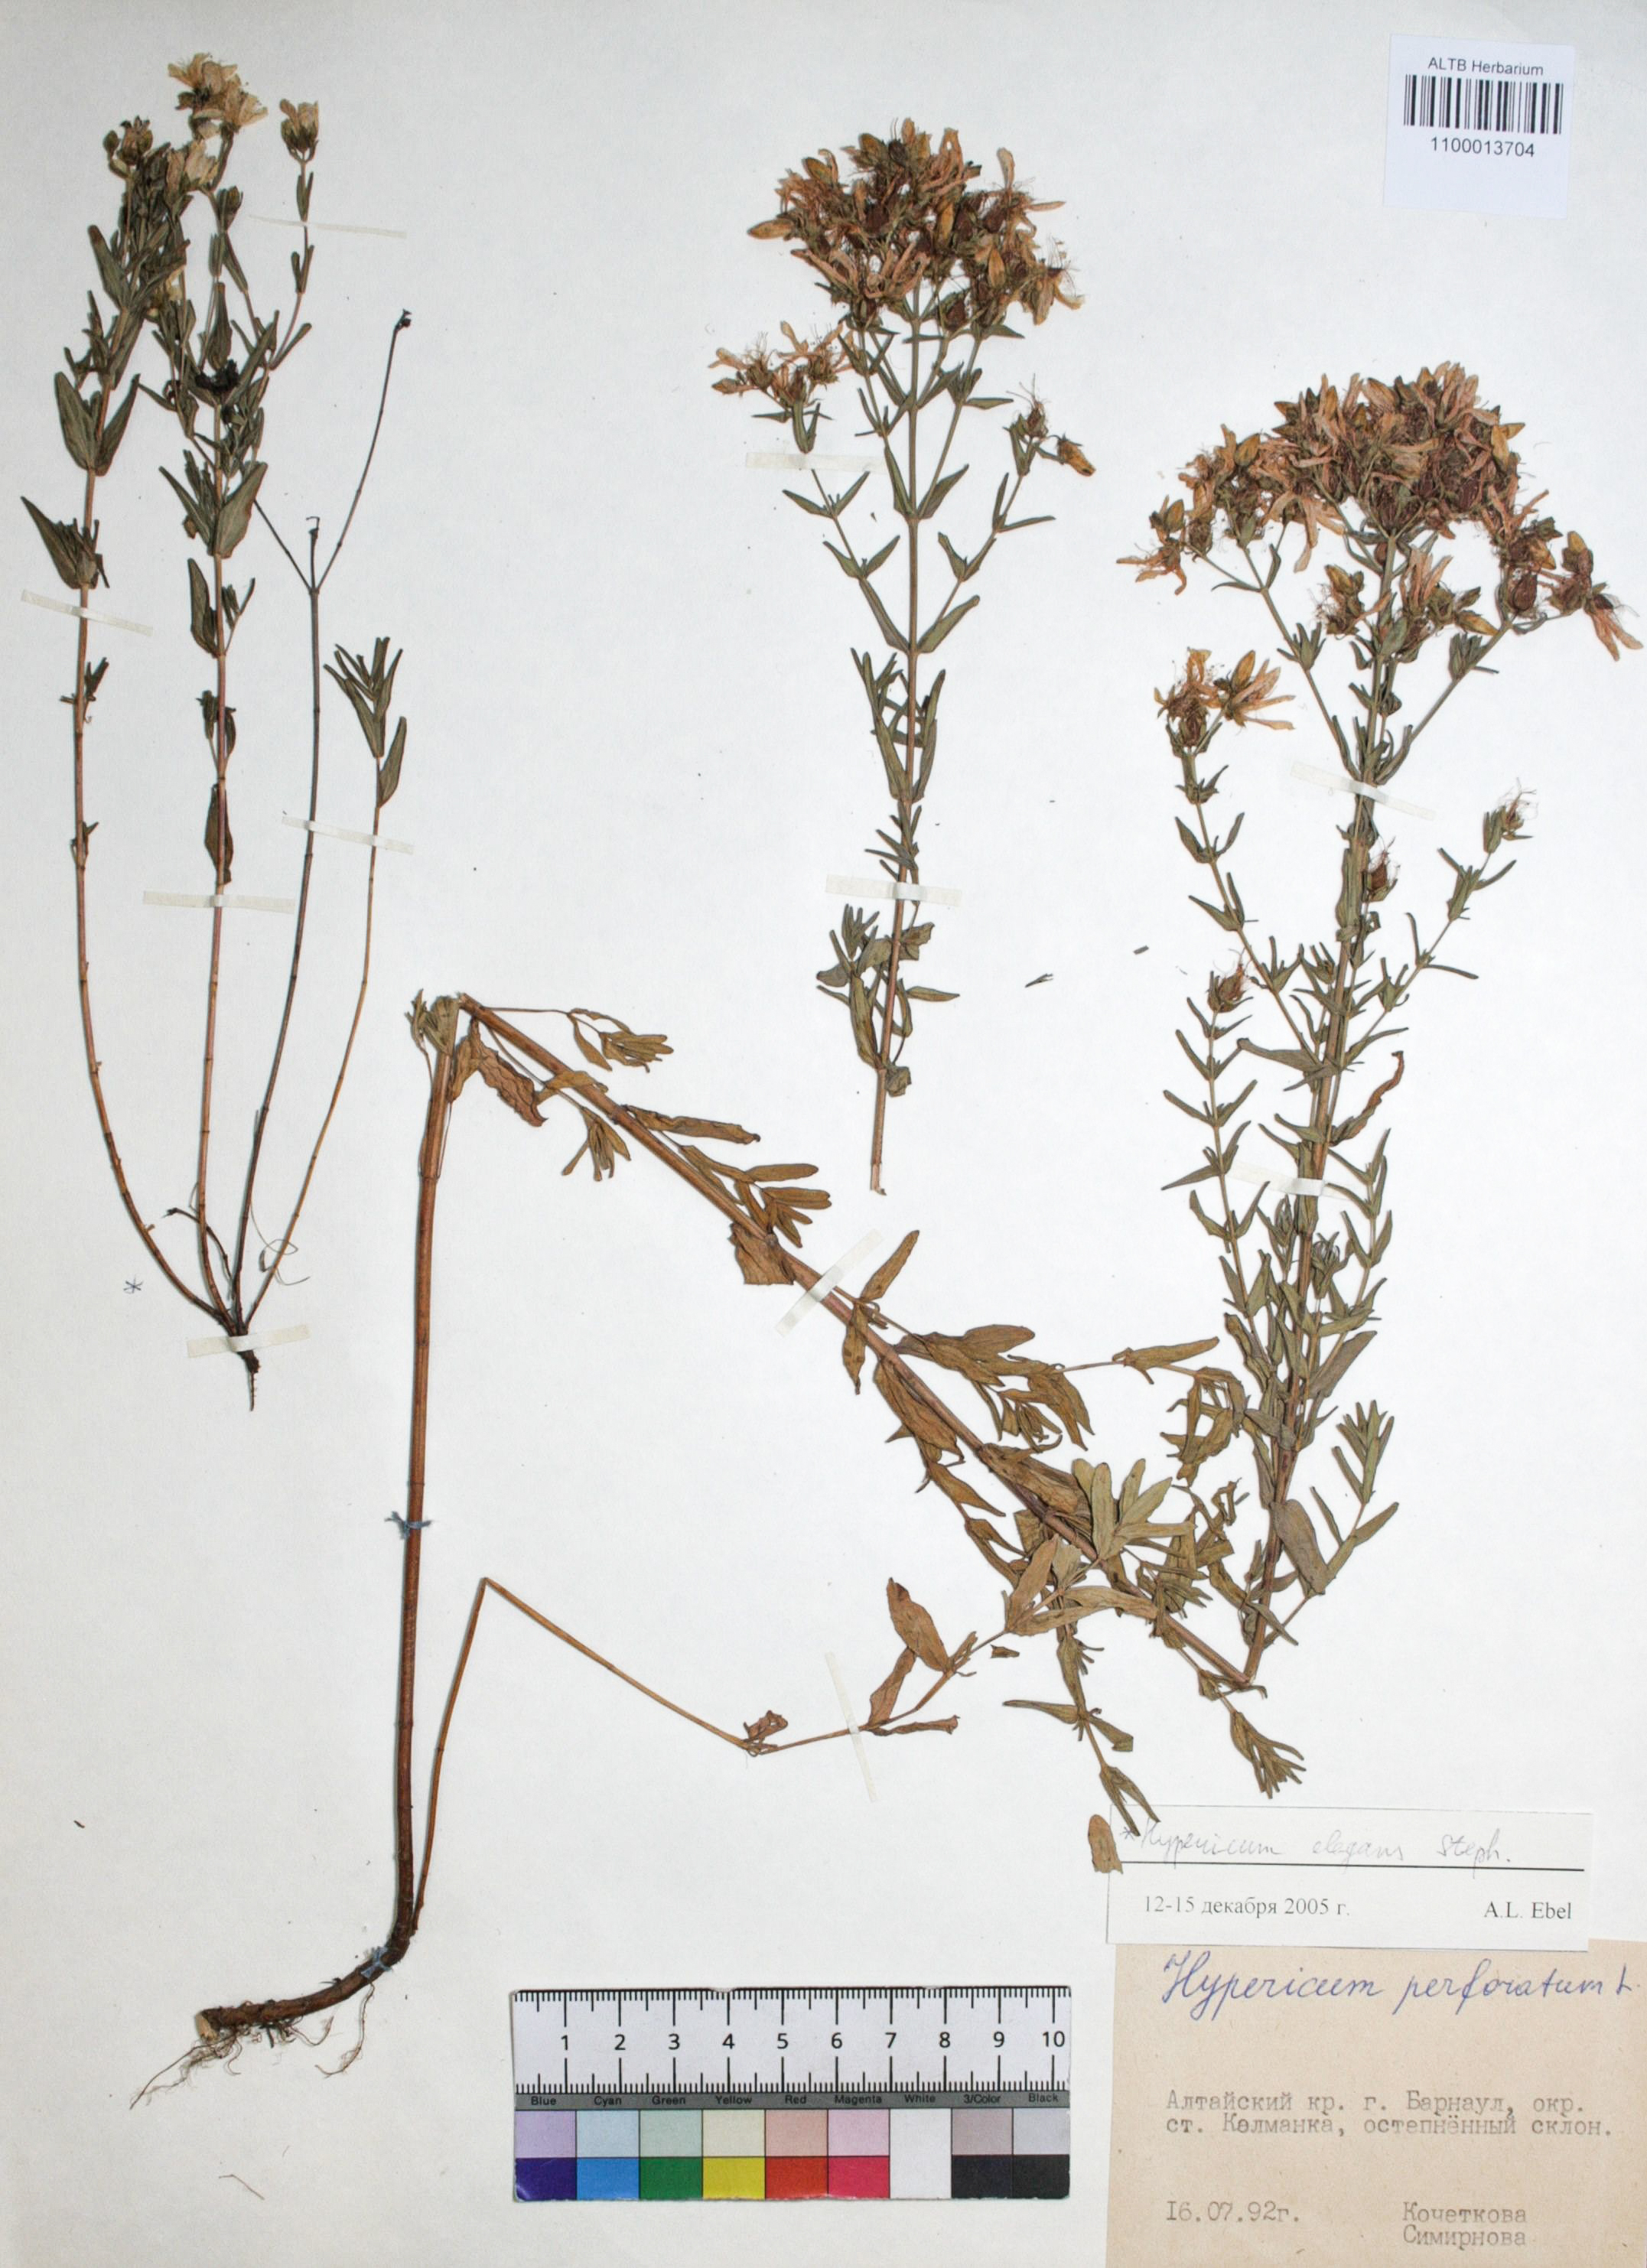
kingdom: Plantae
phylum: Tracheophyta
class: Magnoliopsida
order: Malpighiales
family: Hypericaceae
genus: Hypericum
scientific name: Hypericum elegans
